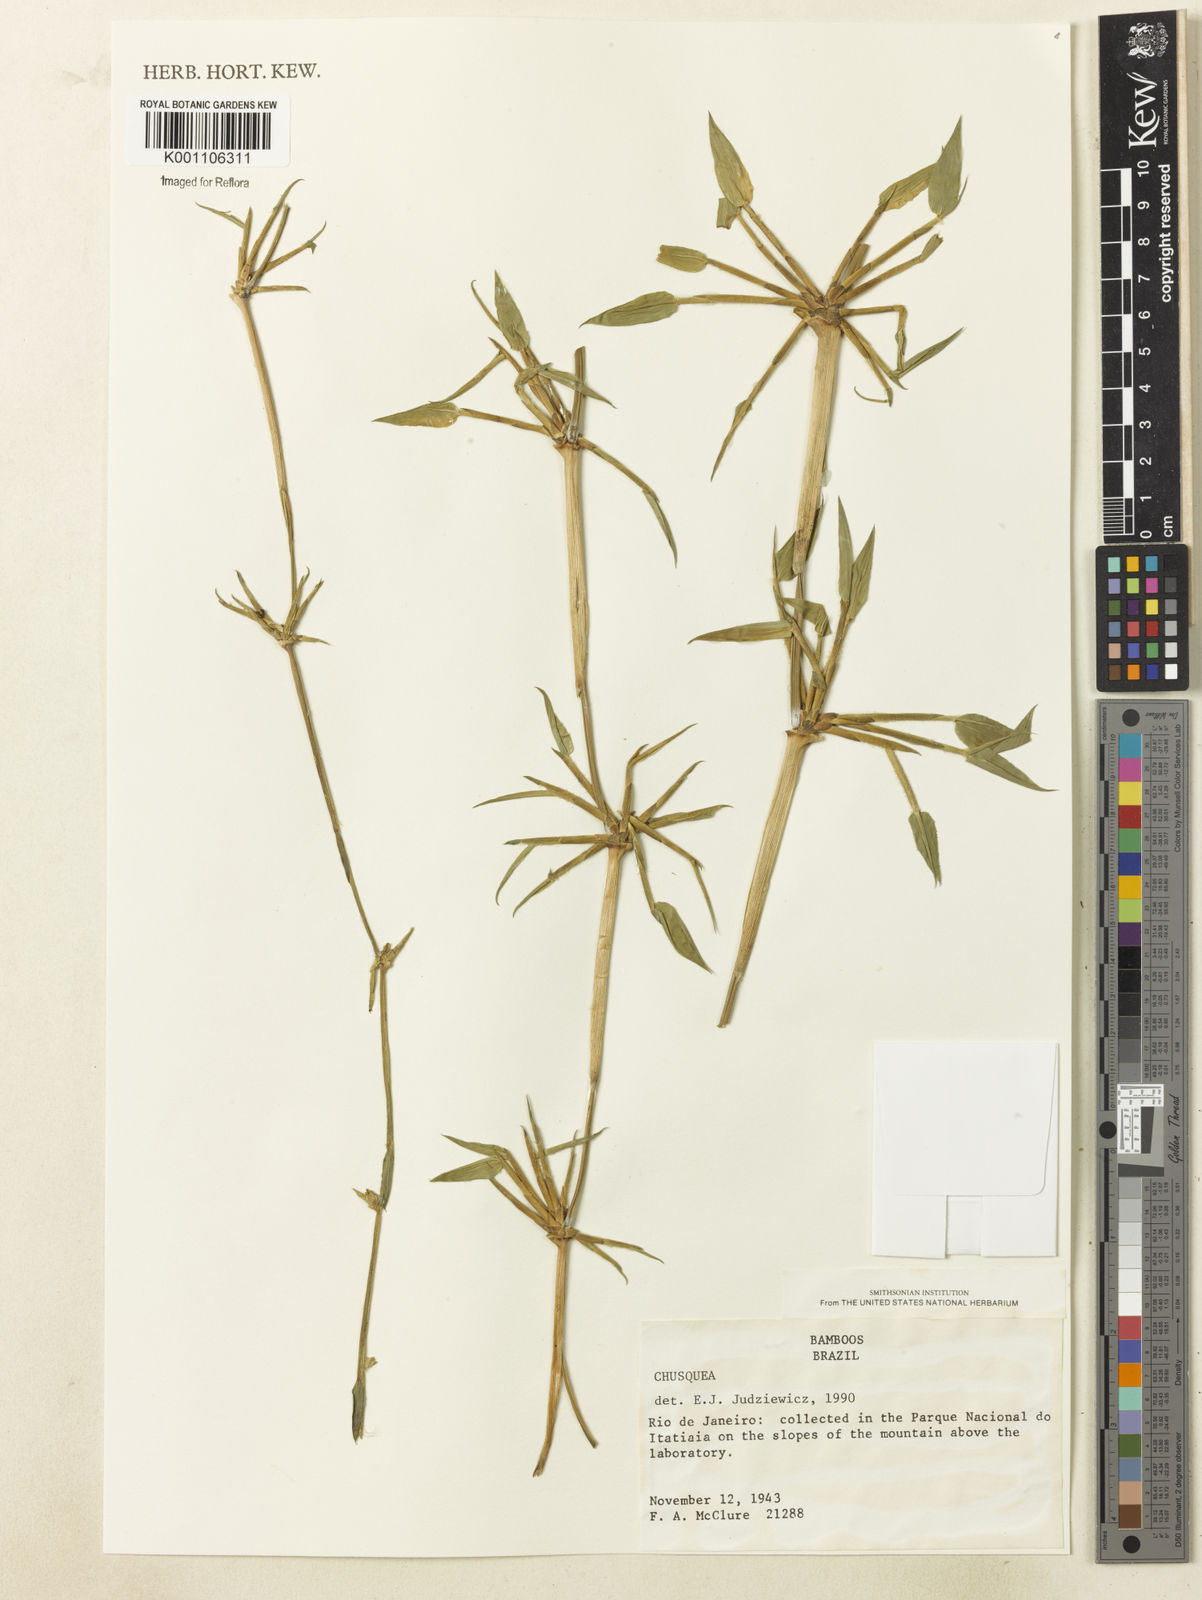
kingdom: Plantae
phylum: Tracheophyta
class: Liliopsida
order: Poales
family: Poaceae
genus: Chusquea
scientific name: Chusquea anelythra
